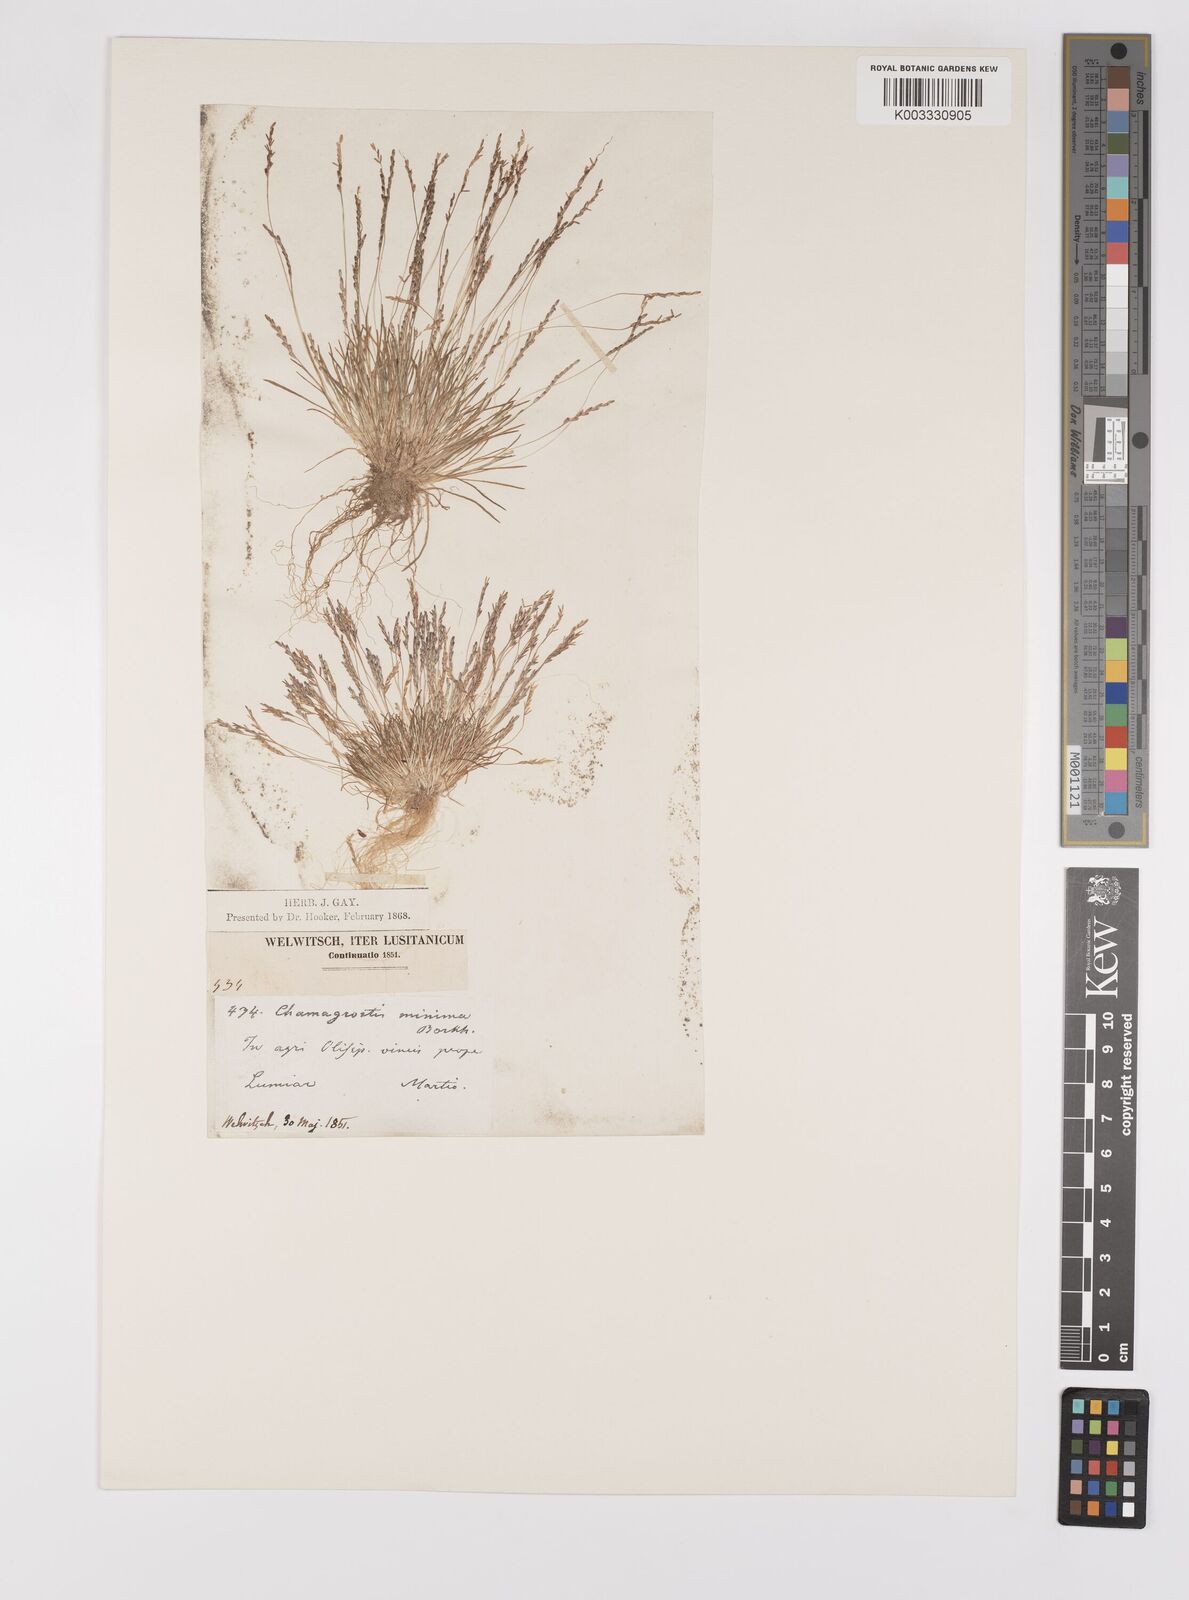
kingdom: Plantae
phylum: Tracheophyta
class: Liliopsida
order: Poales
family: Poaceae
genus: Mibora
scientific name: Mibora minima
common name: Early sand-grass
